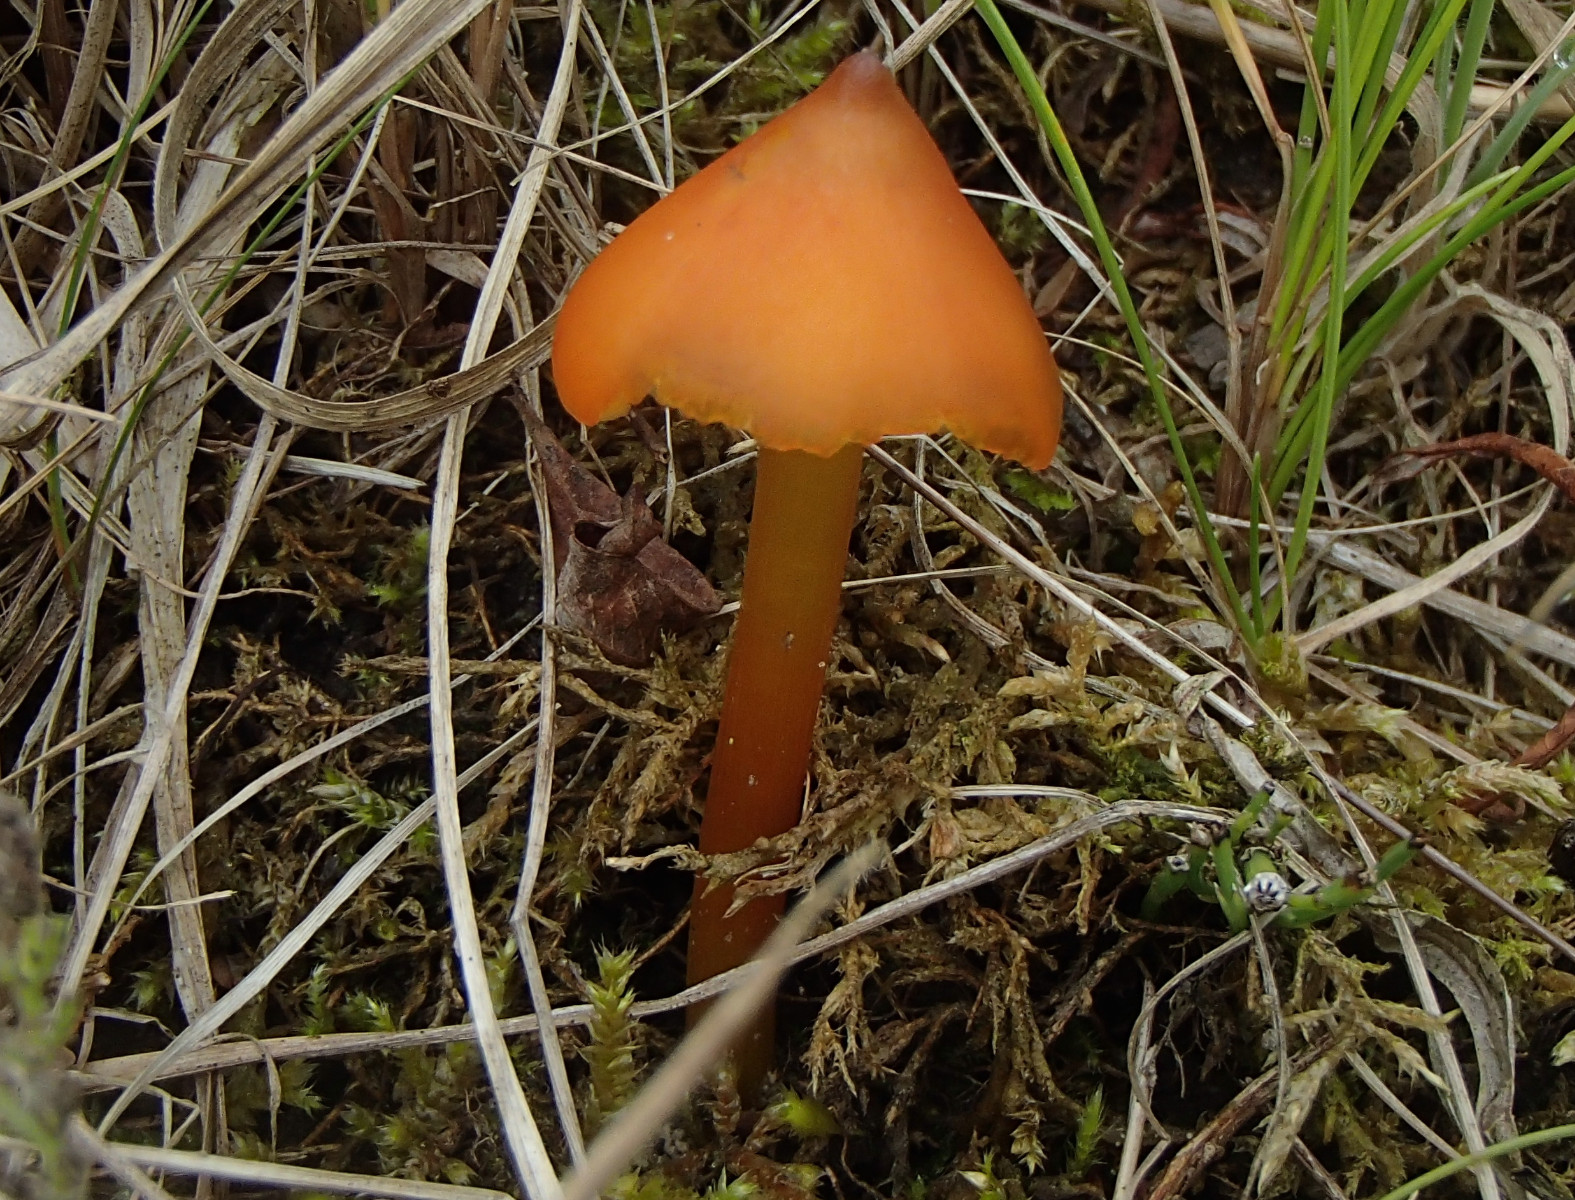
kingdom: Fungi
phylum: Basidiomycota
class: Agaricomycetes
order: Agaricales
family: Hygrophoraceae
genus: Hygrocybe
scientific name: Hygrocybe conica
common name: kegle-vokshat
